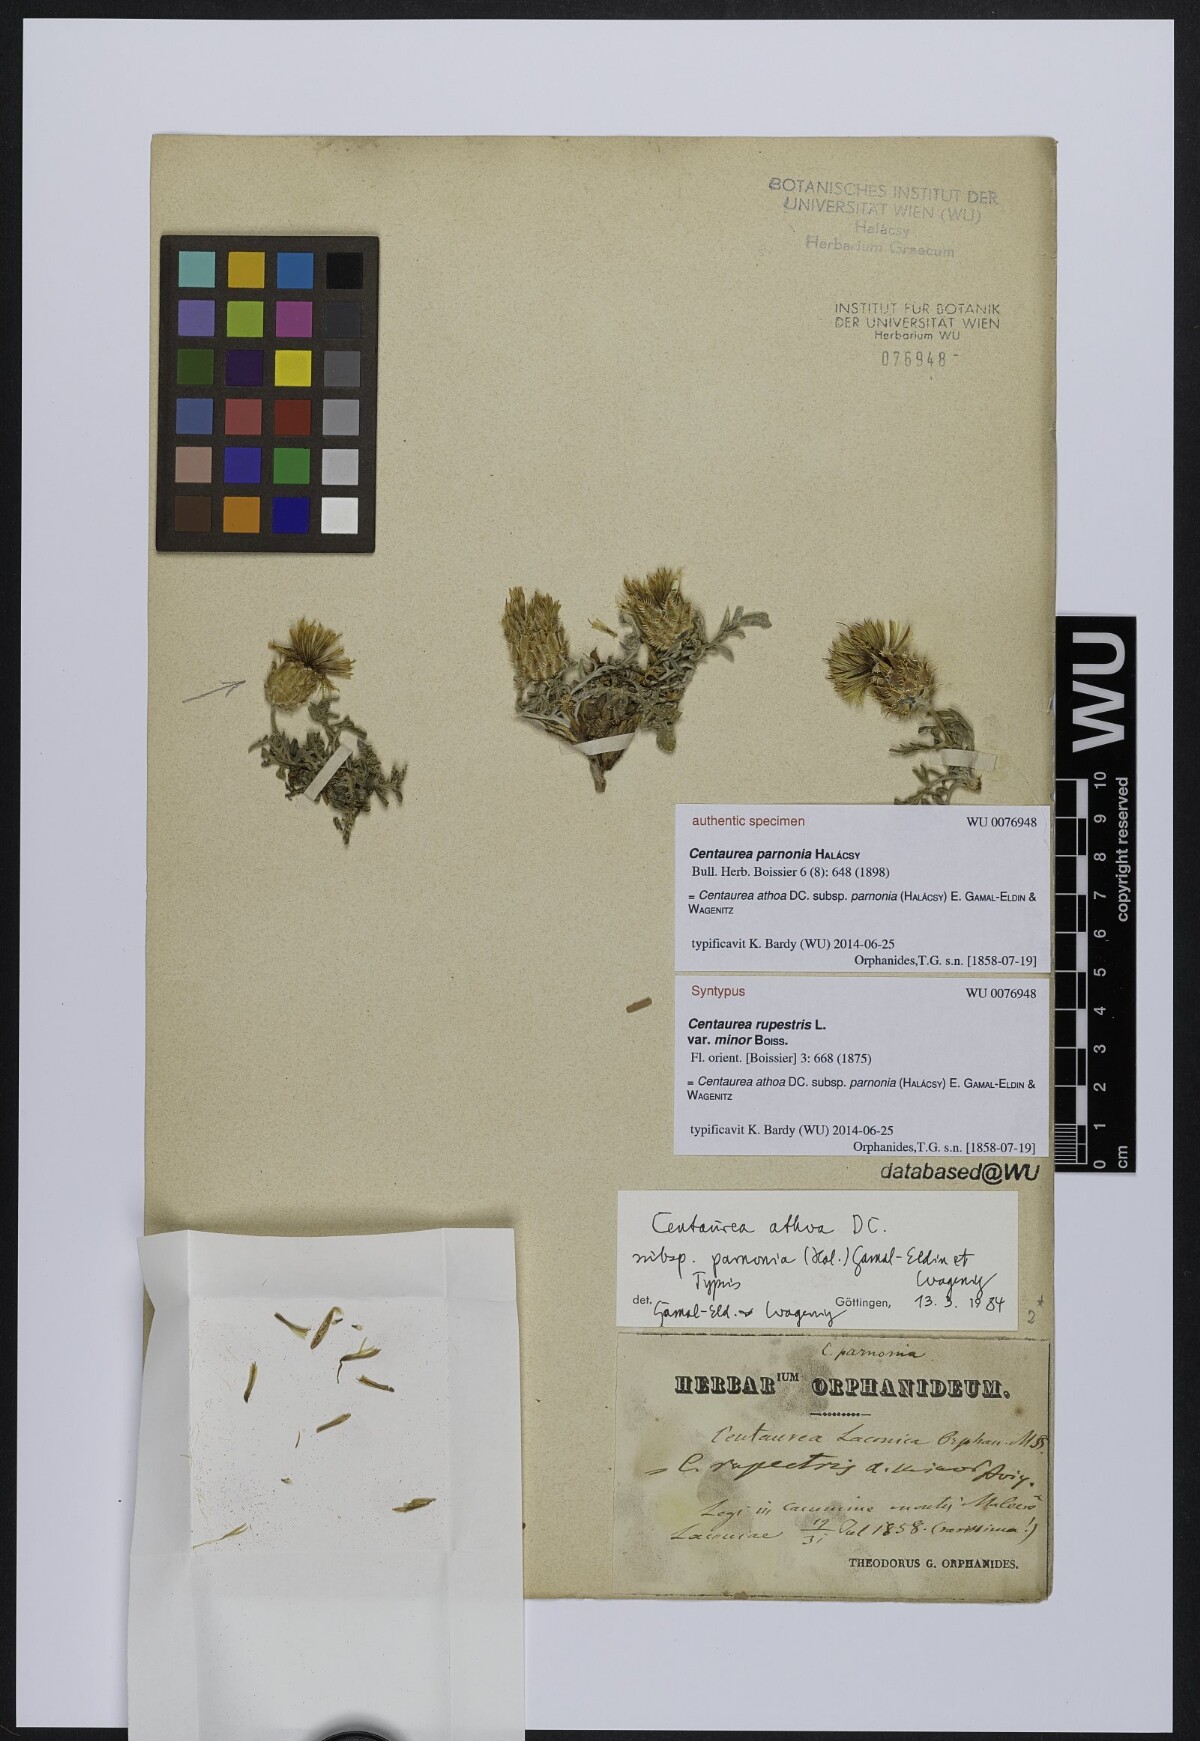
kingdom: Plantae
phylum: Tracheophyta
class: Magnoliopsida
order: Asterales
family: Asteraceae
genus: Centaurea
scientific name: Centaurea athoa
